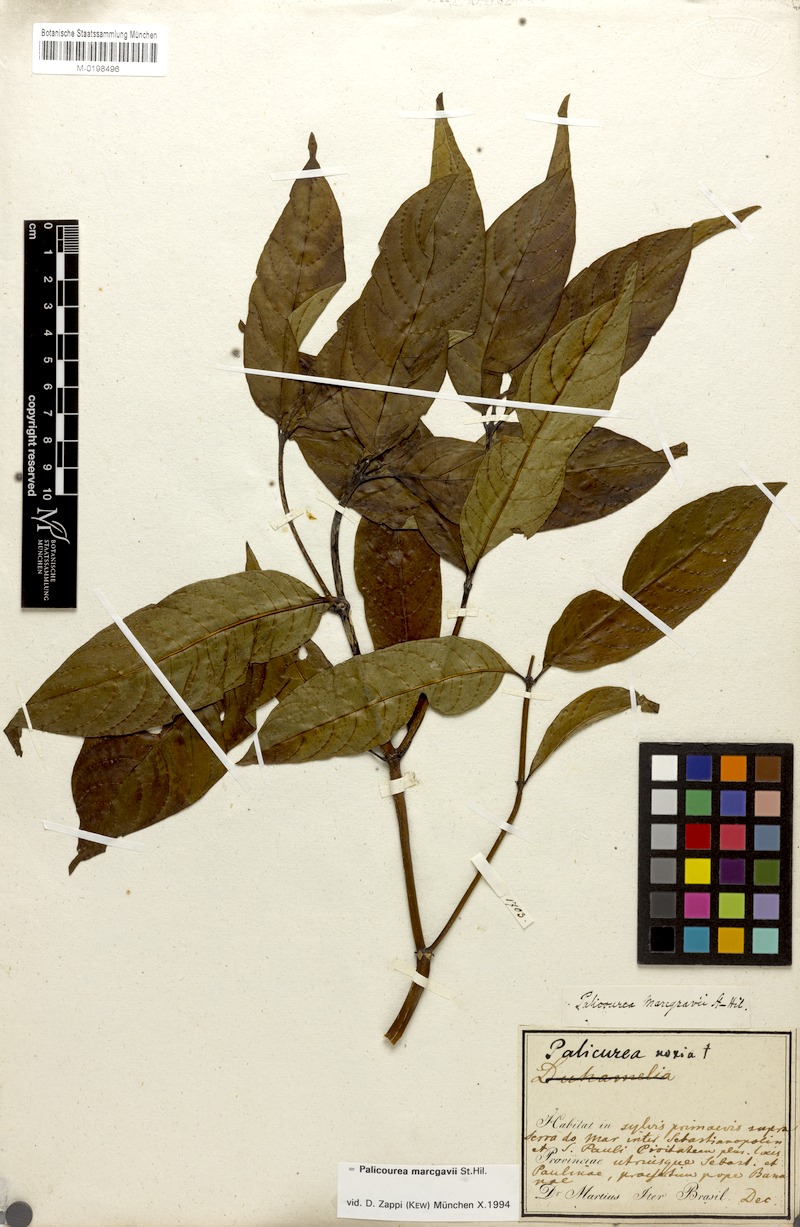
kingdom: Plantae
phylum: Tracheophyta
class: Magnoliopsida
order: Gentianales
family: Rubiaceae
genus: Palicourea
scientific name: Palicourea crocea
